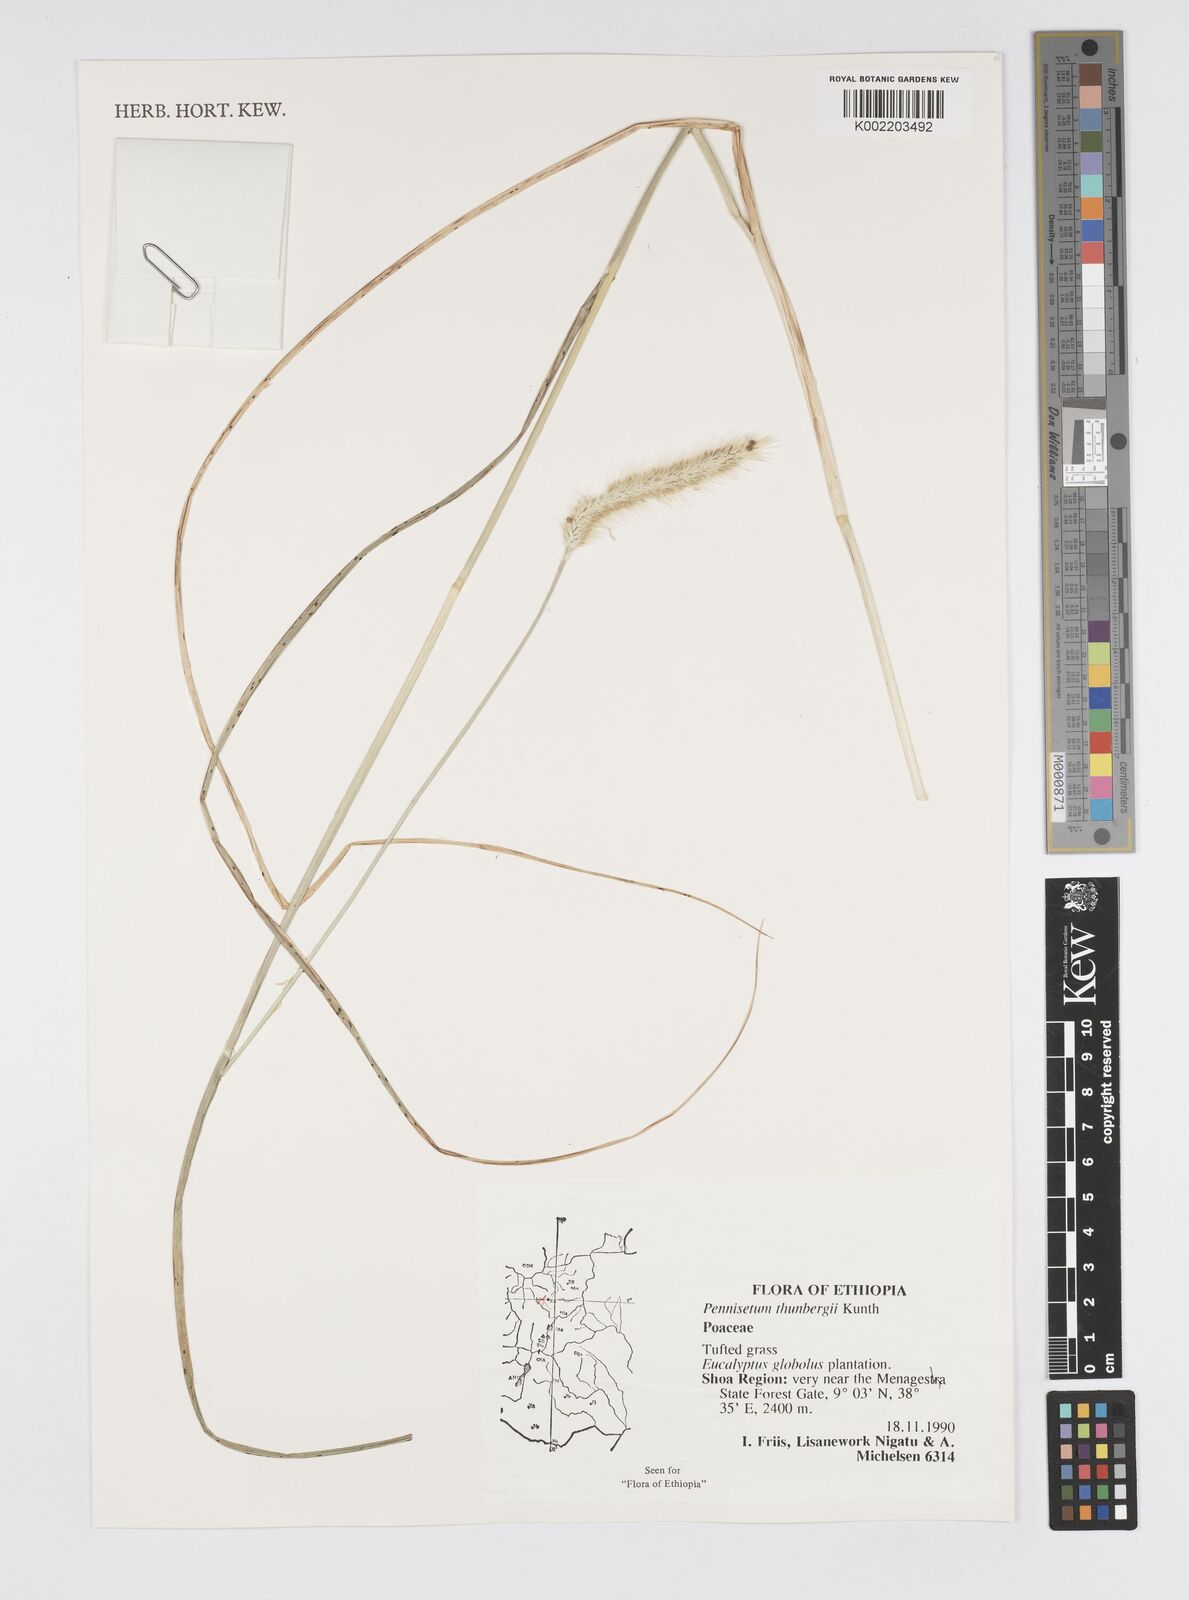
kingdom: Plantae
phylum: Tracheophyta
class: Liliopsida
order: Poales
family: Poaceae
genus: Cenchrus
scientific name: Cenchrus geniculatus
